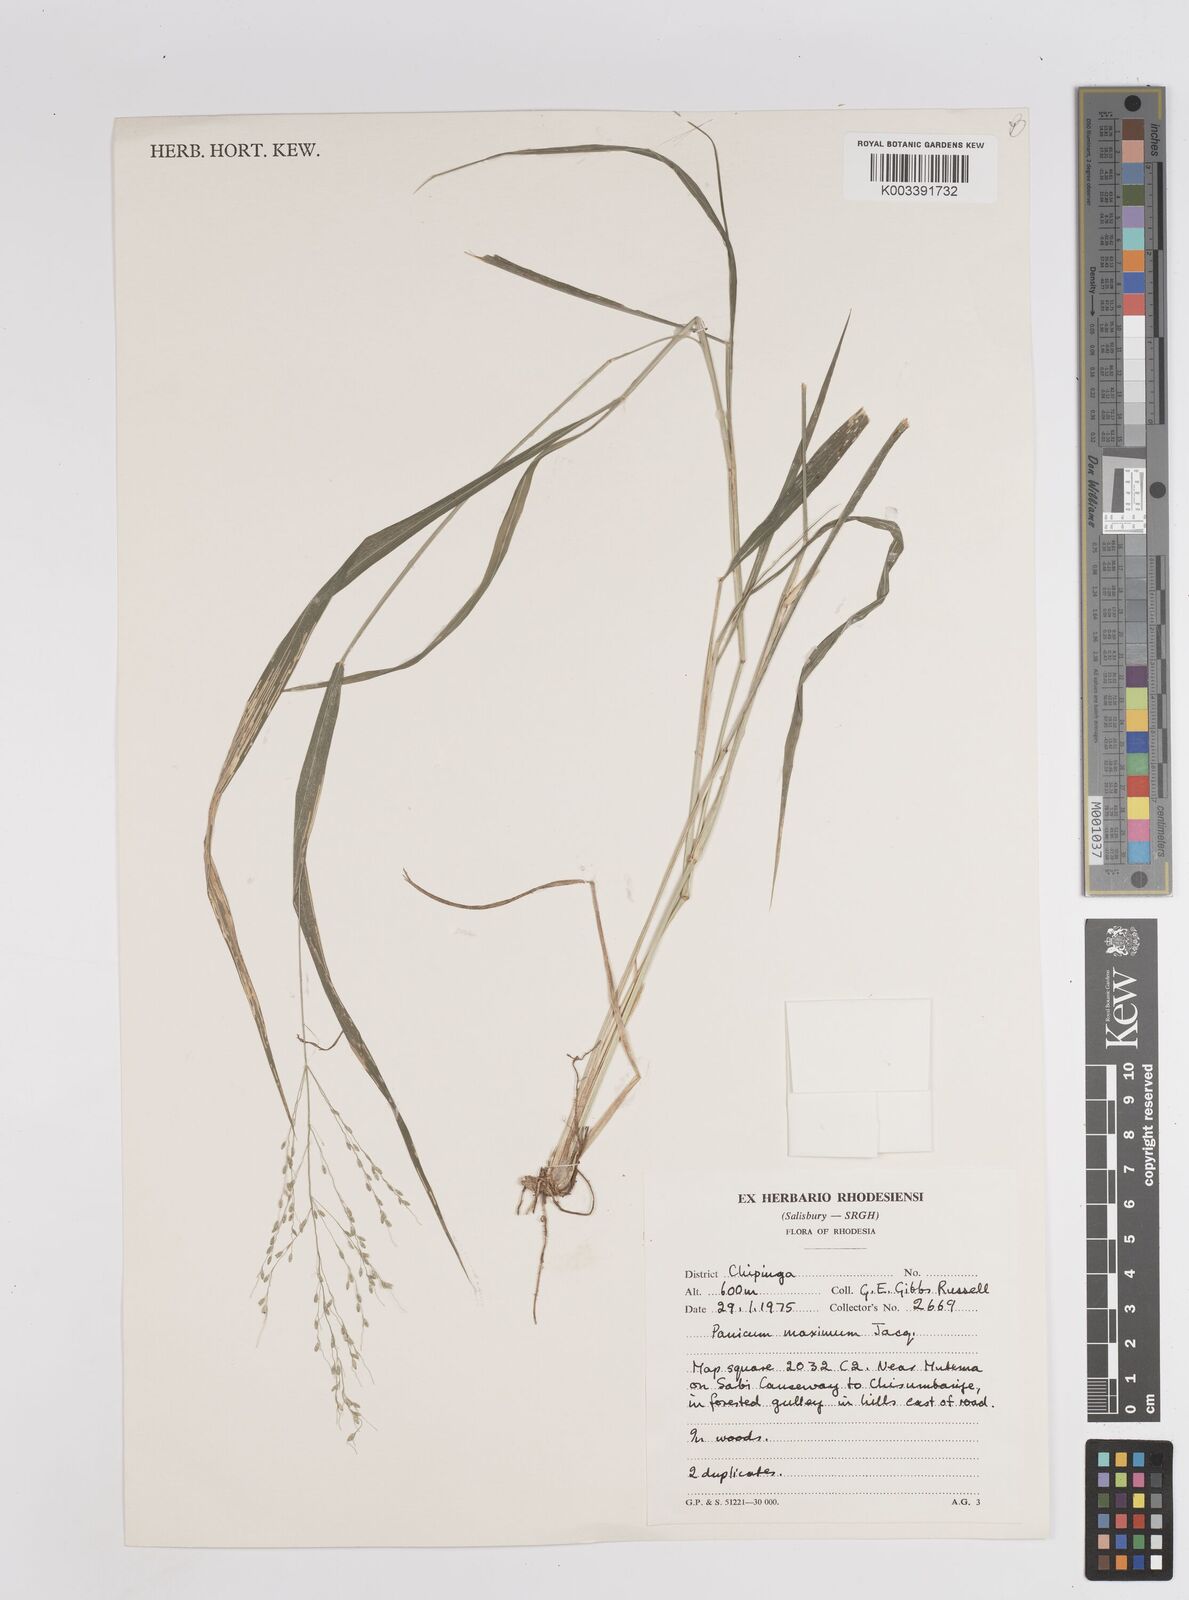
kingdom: Plantae
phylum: Tracheophyta
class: Liliopsida
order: Poales
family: Poaceae
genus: Megathyrsus
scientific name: Megathyrsus maximus
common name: Guineagrass
